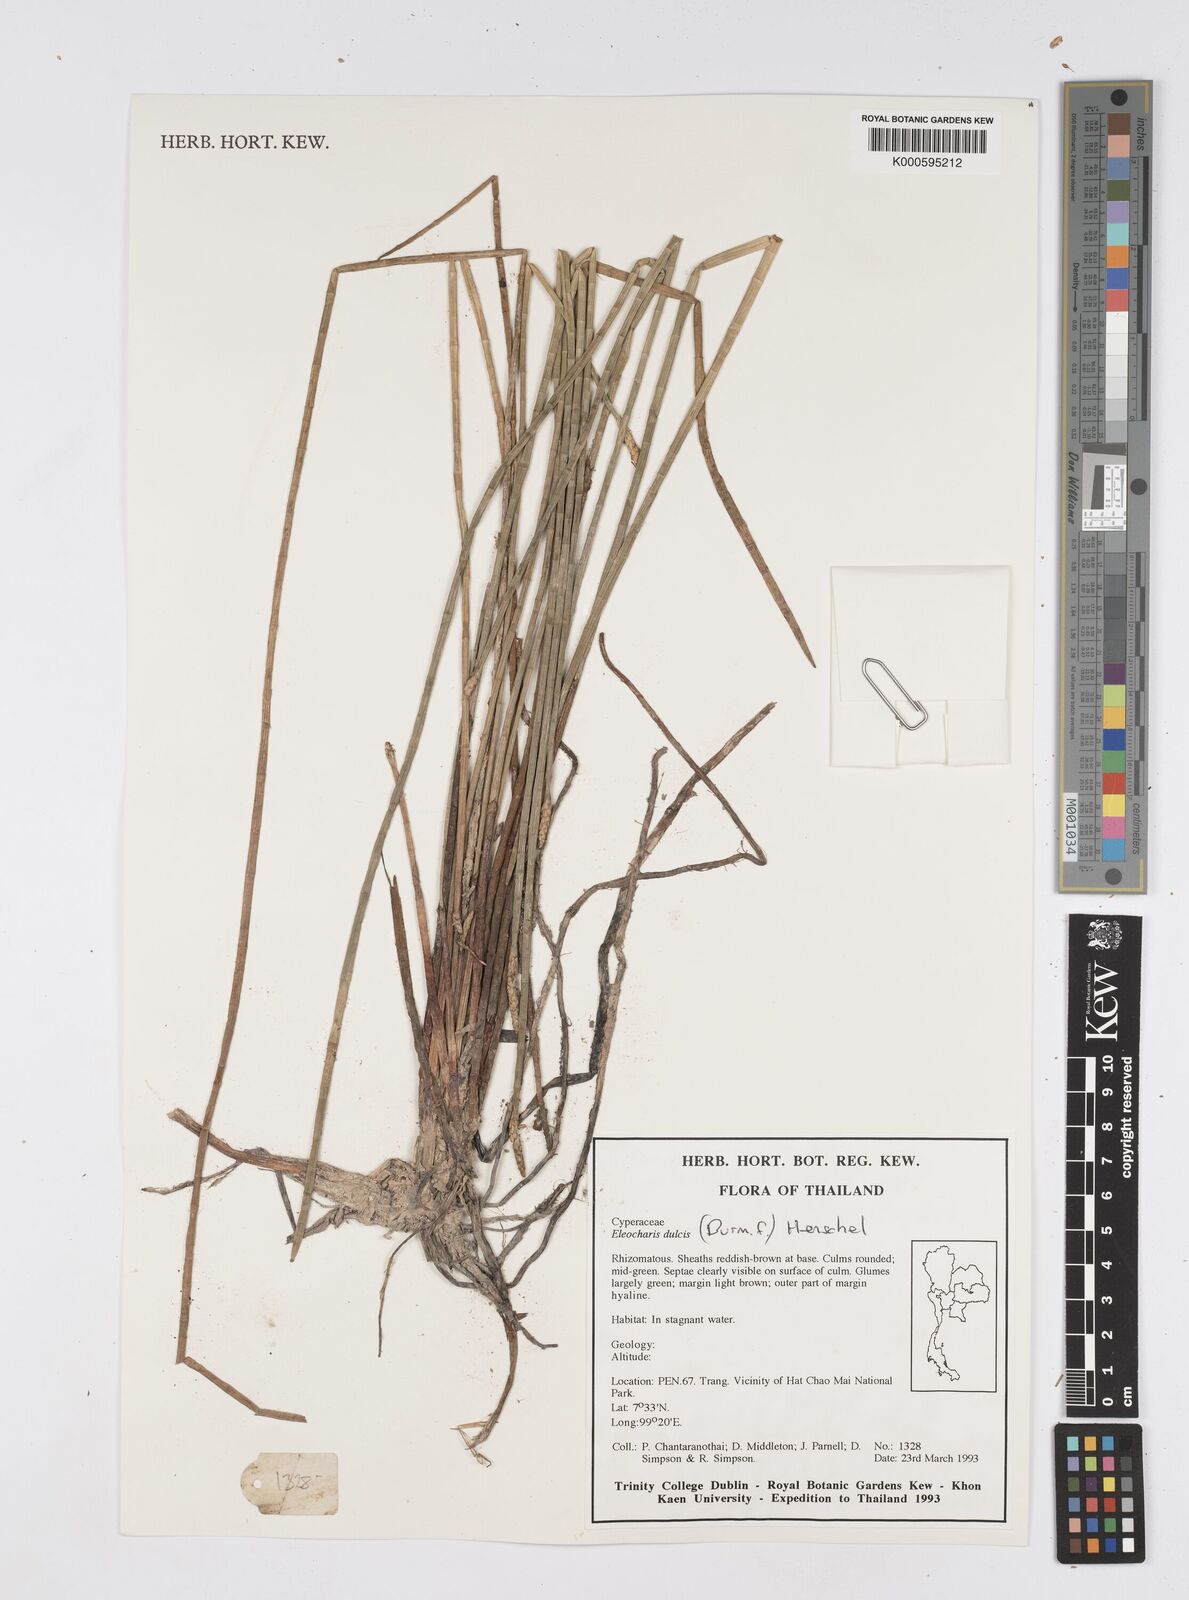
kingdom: Plantae
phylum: Tracheophyta
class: Liliopsida
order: Poales
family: Cyperaceae
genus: Eleocharis
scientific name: Eleocharis dulcis
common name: Chinese water chestnut
